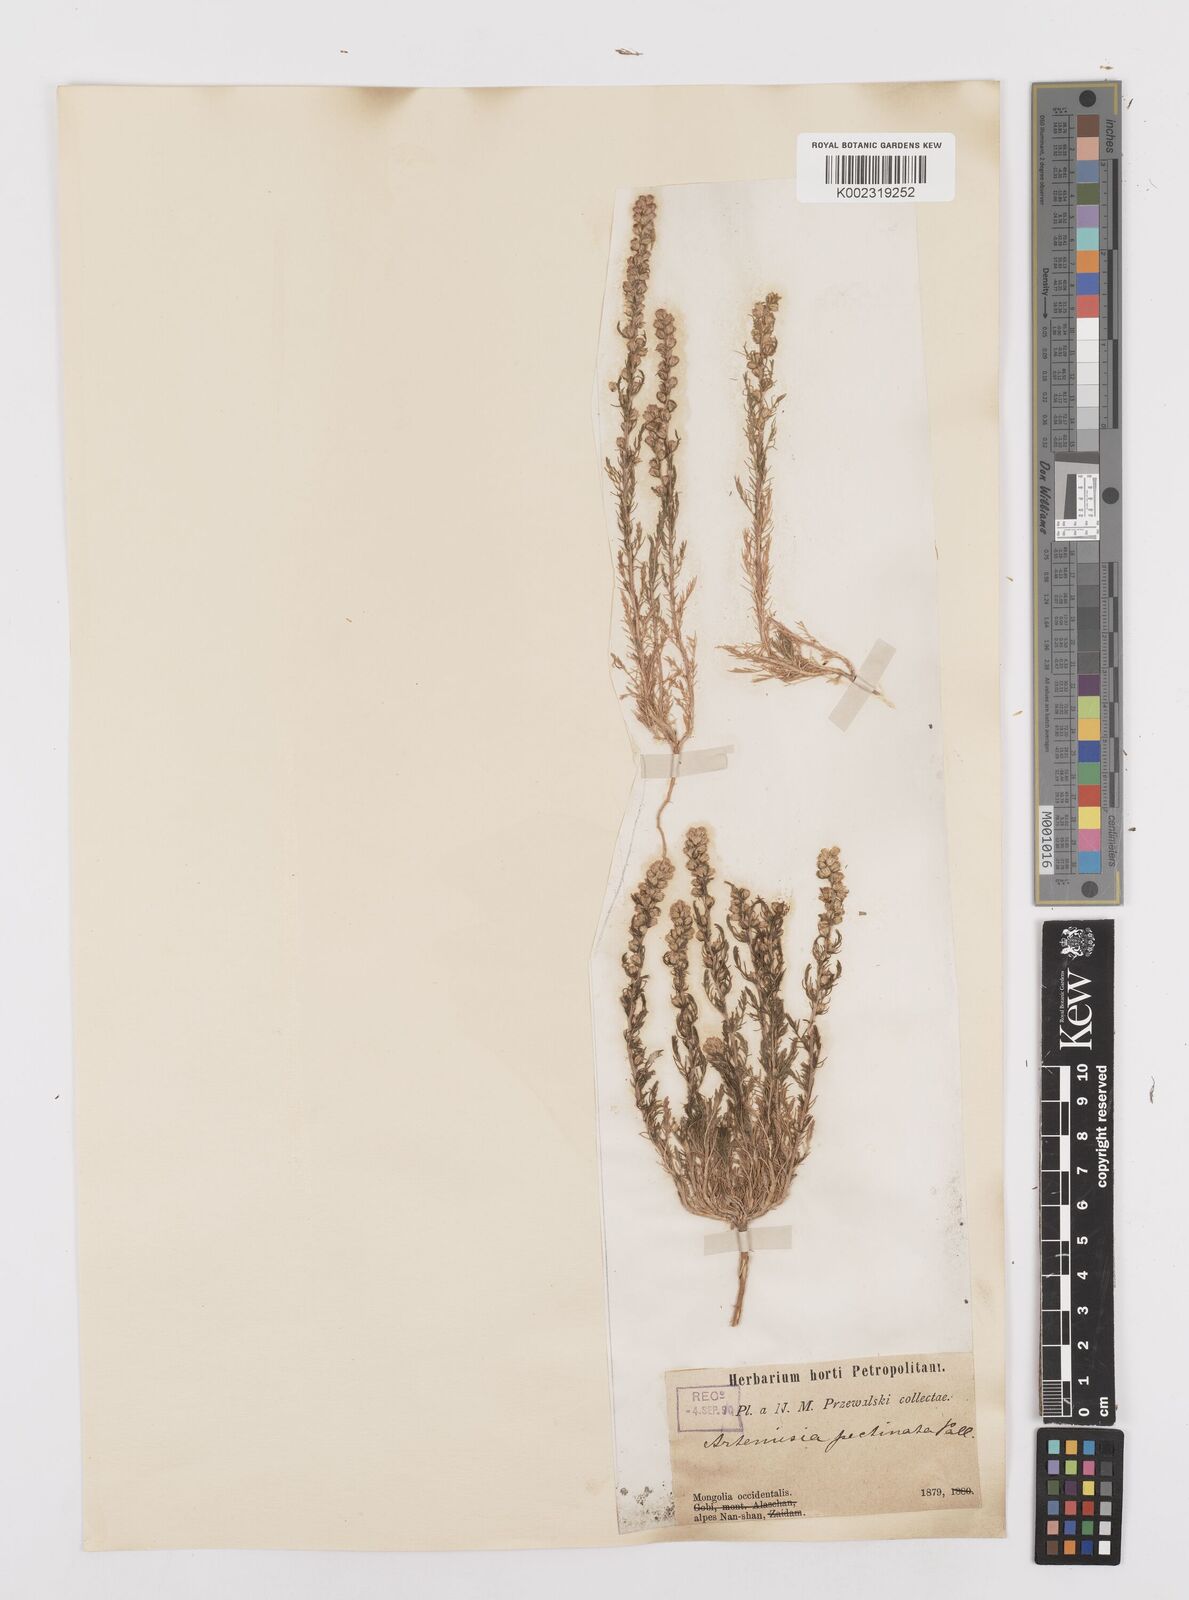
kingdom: Plantae
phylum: Tracheophyta
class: Magnoliopsida
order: Asterales
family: Asteraceae
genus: Neopallasia
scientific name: Neopallasia pectinata
